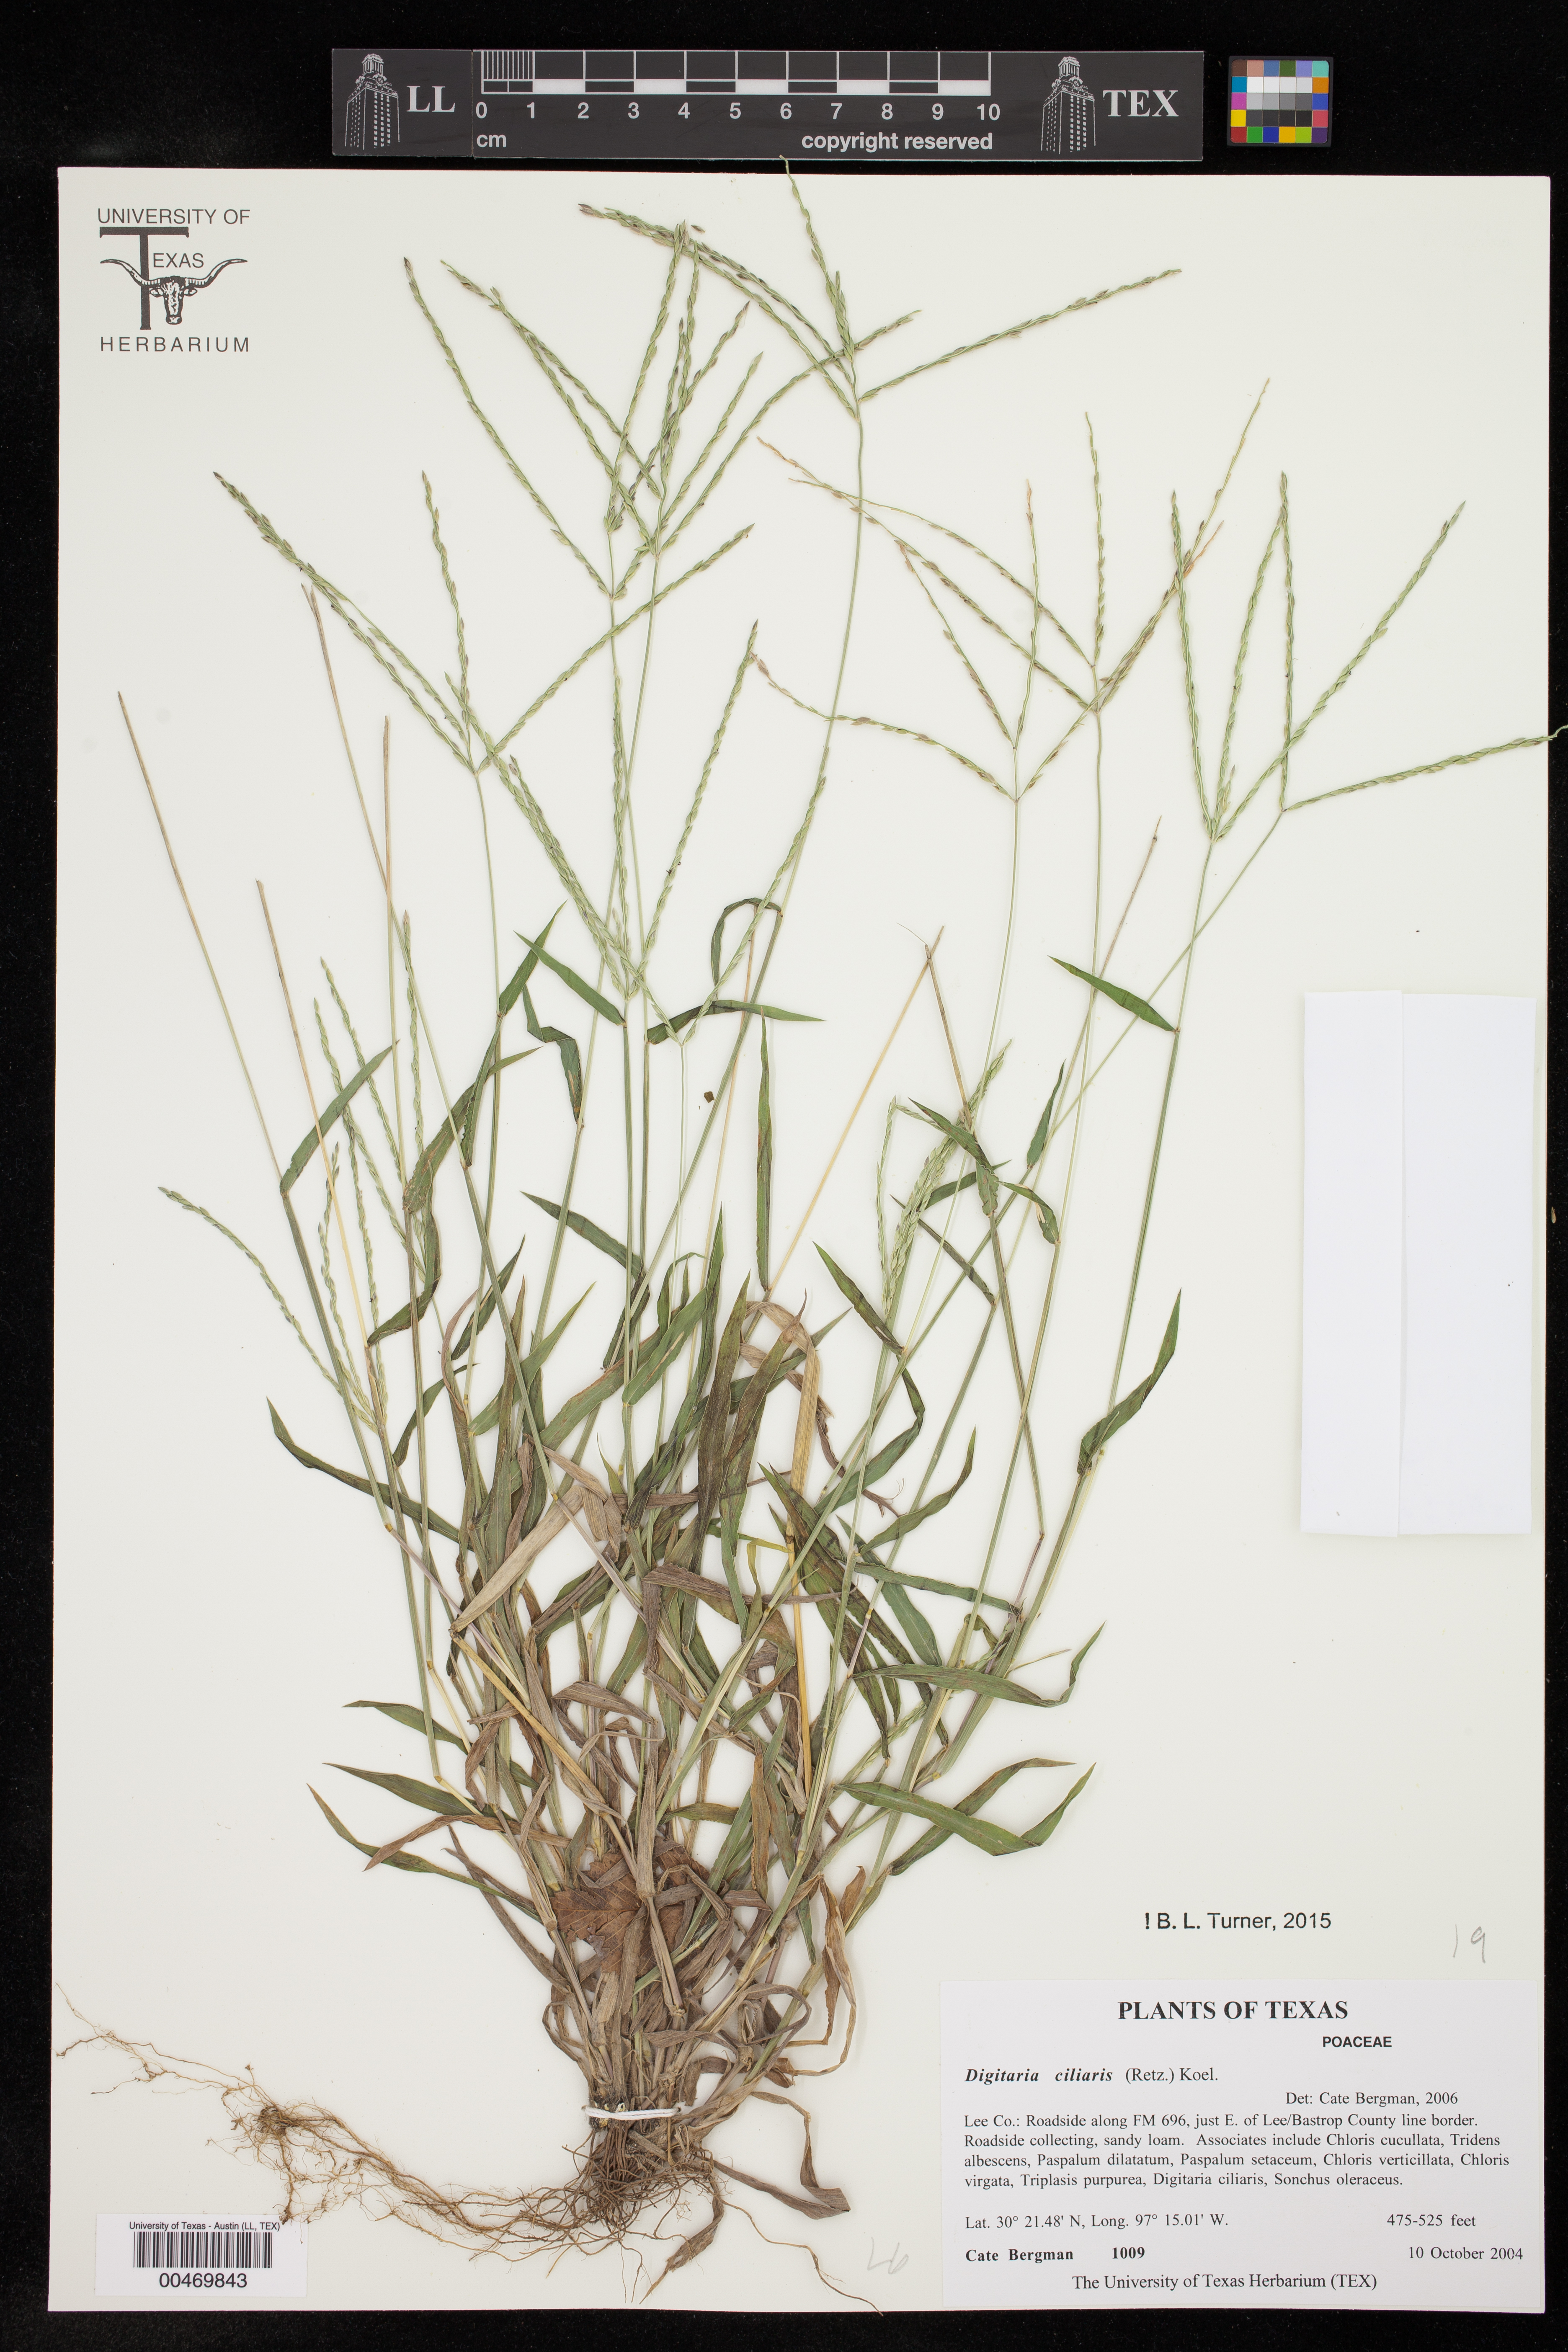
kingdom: Plantae
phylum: Tracheophyta
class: Liliopsida
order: Poales
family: Poaceae
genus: Digitaria
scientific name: Digitaria ciliaris
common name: Tropical finger-grass
